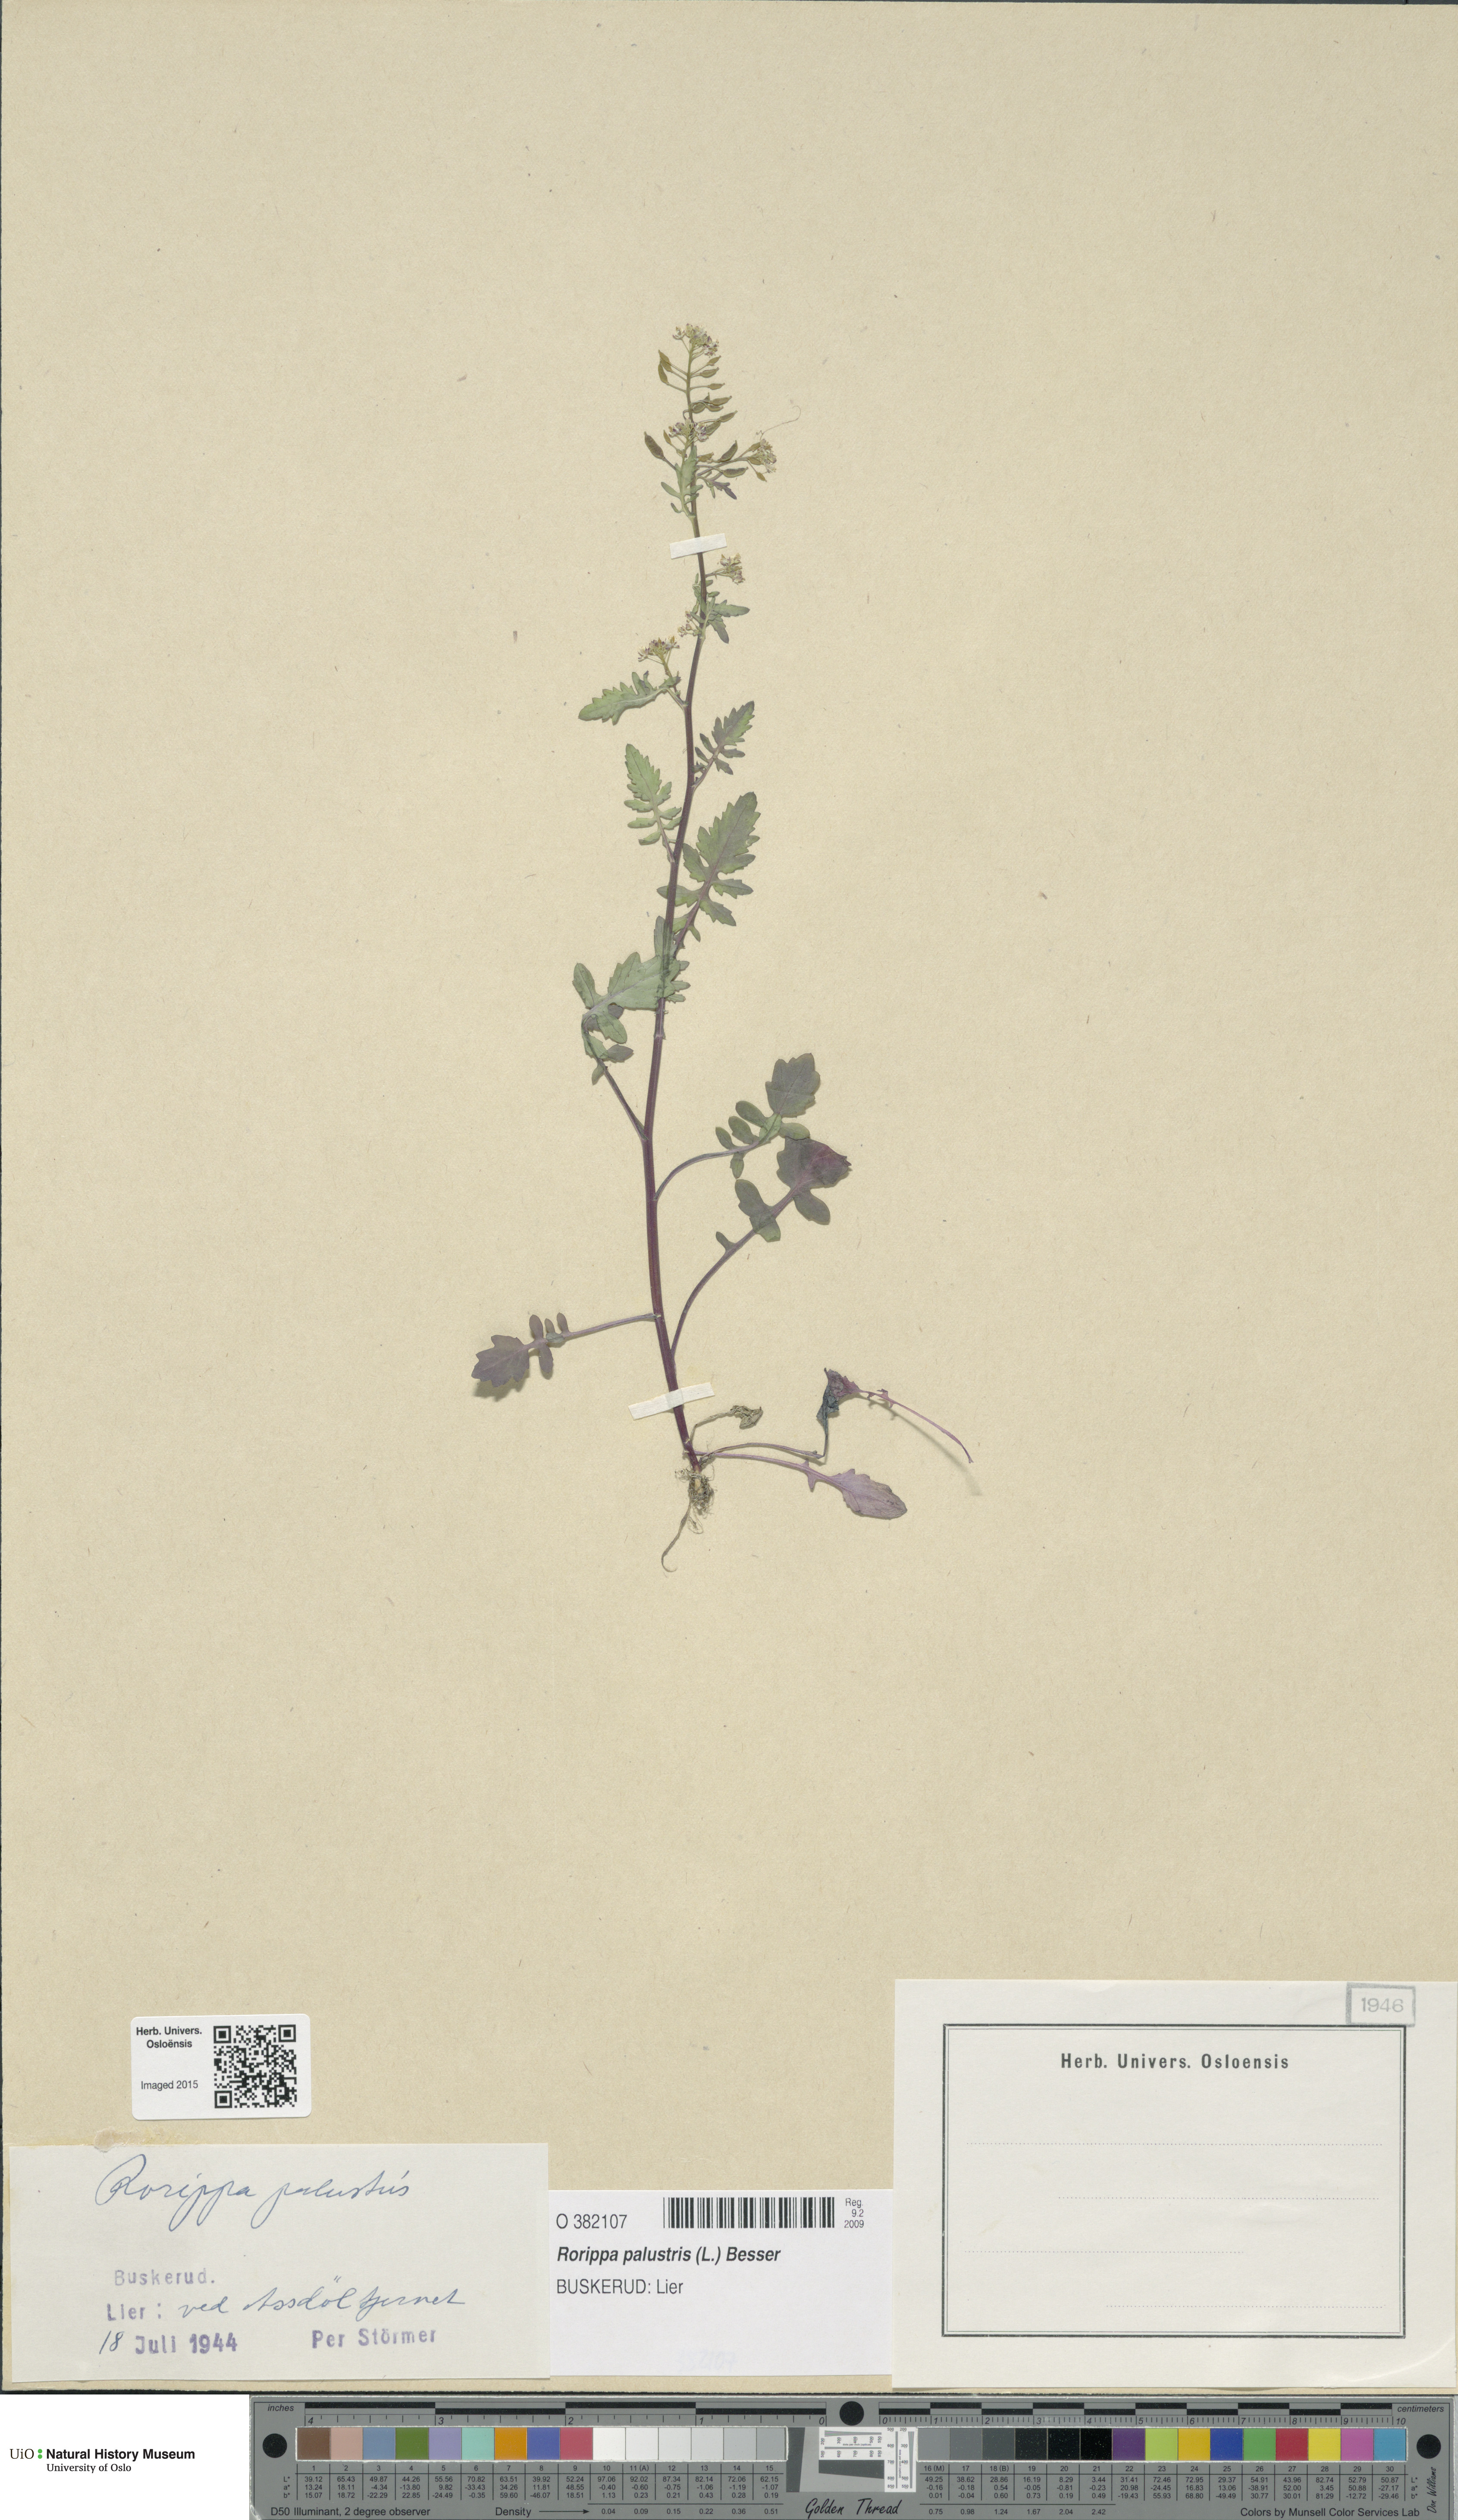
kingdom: Plantae
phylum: Tracheophyta
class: Magnoliopsida
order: Brassicales
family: Brassicaceae
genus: Rorippa
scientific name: Rorippa palustris
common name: Marsh yellow-cress
